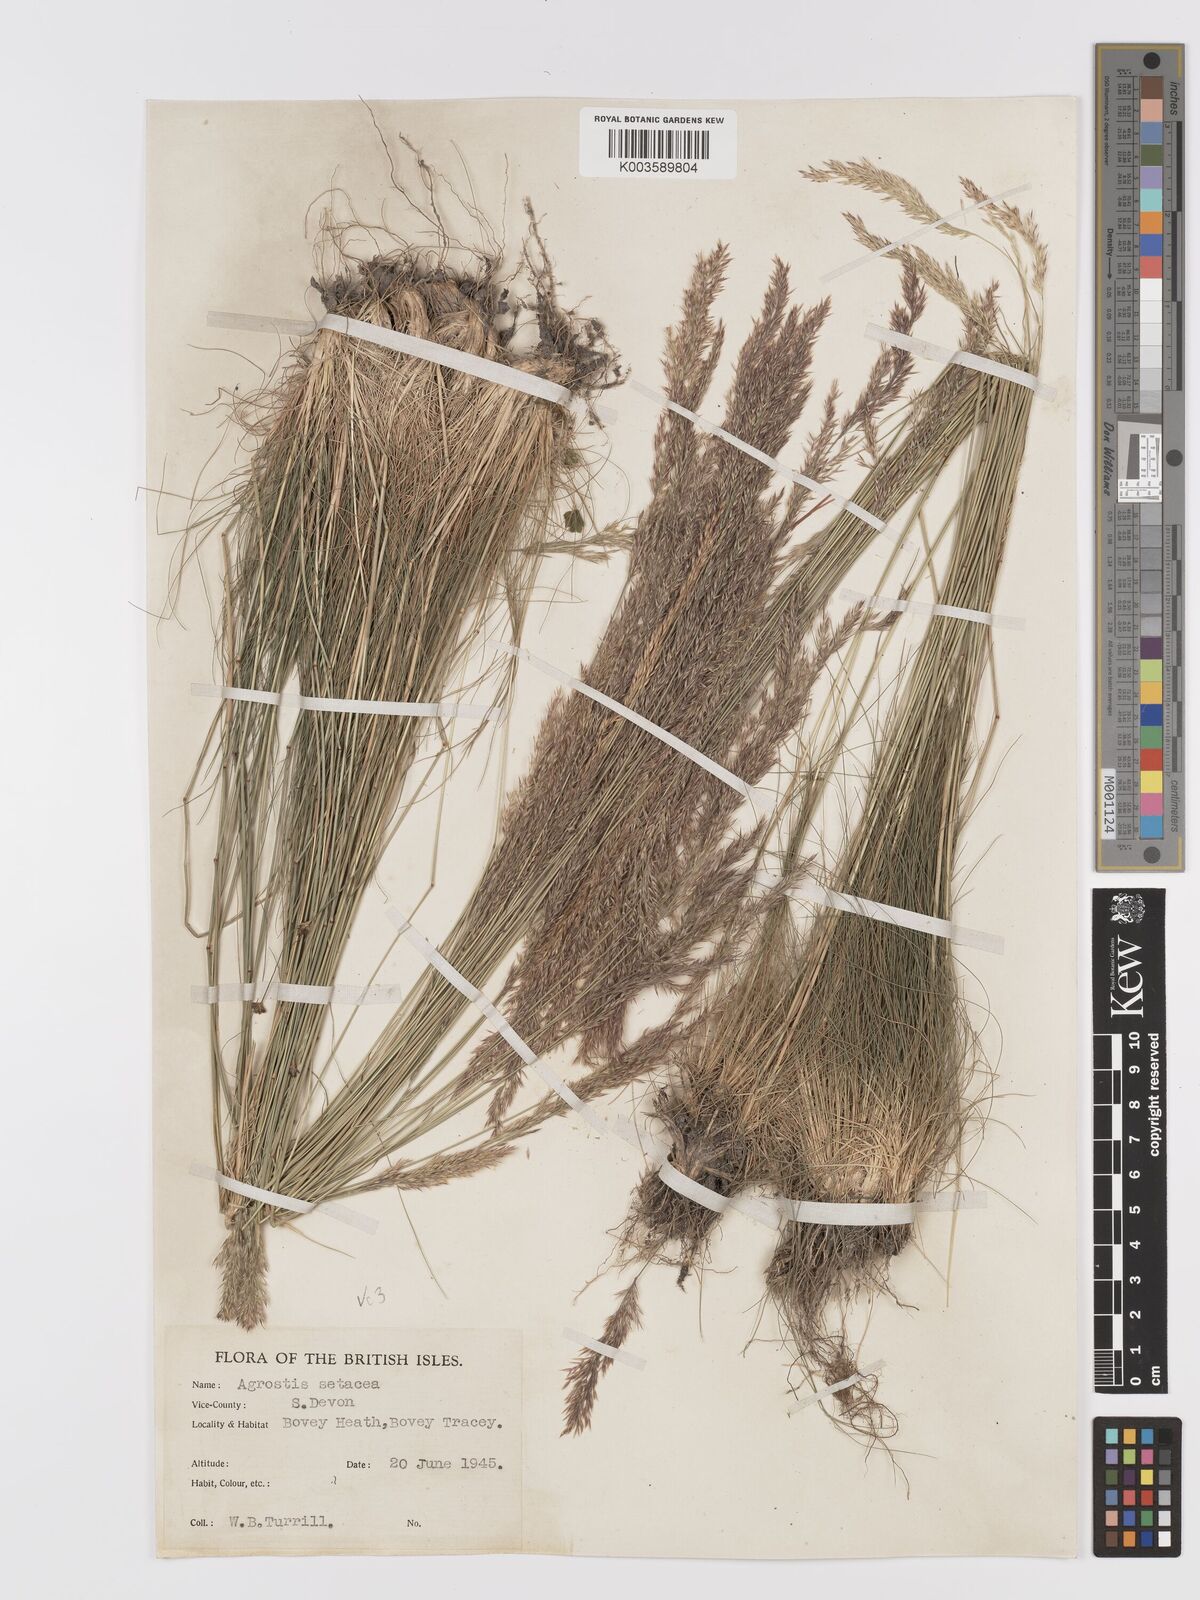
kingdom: Plantae
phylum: Tracheophyta
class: Liliopsida
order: Poales
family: Poaceae
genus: Alpagrostis
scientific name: Alpagrostis setacea
